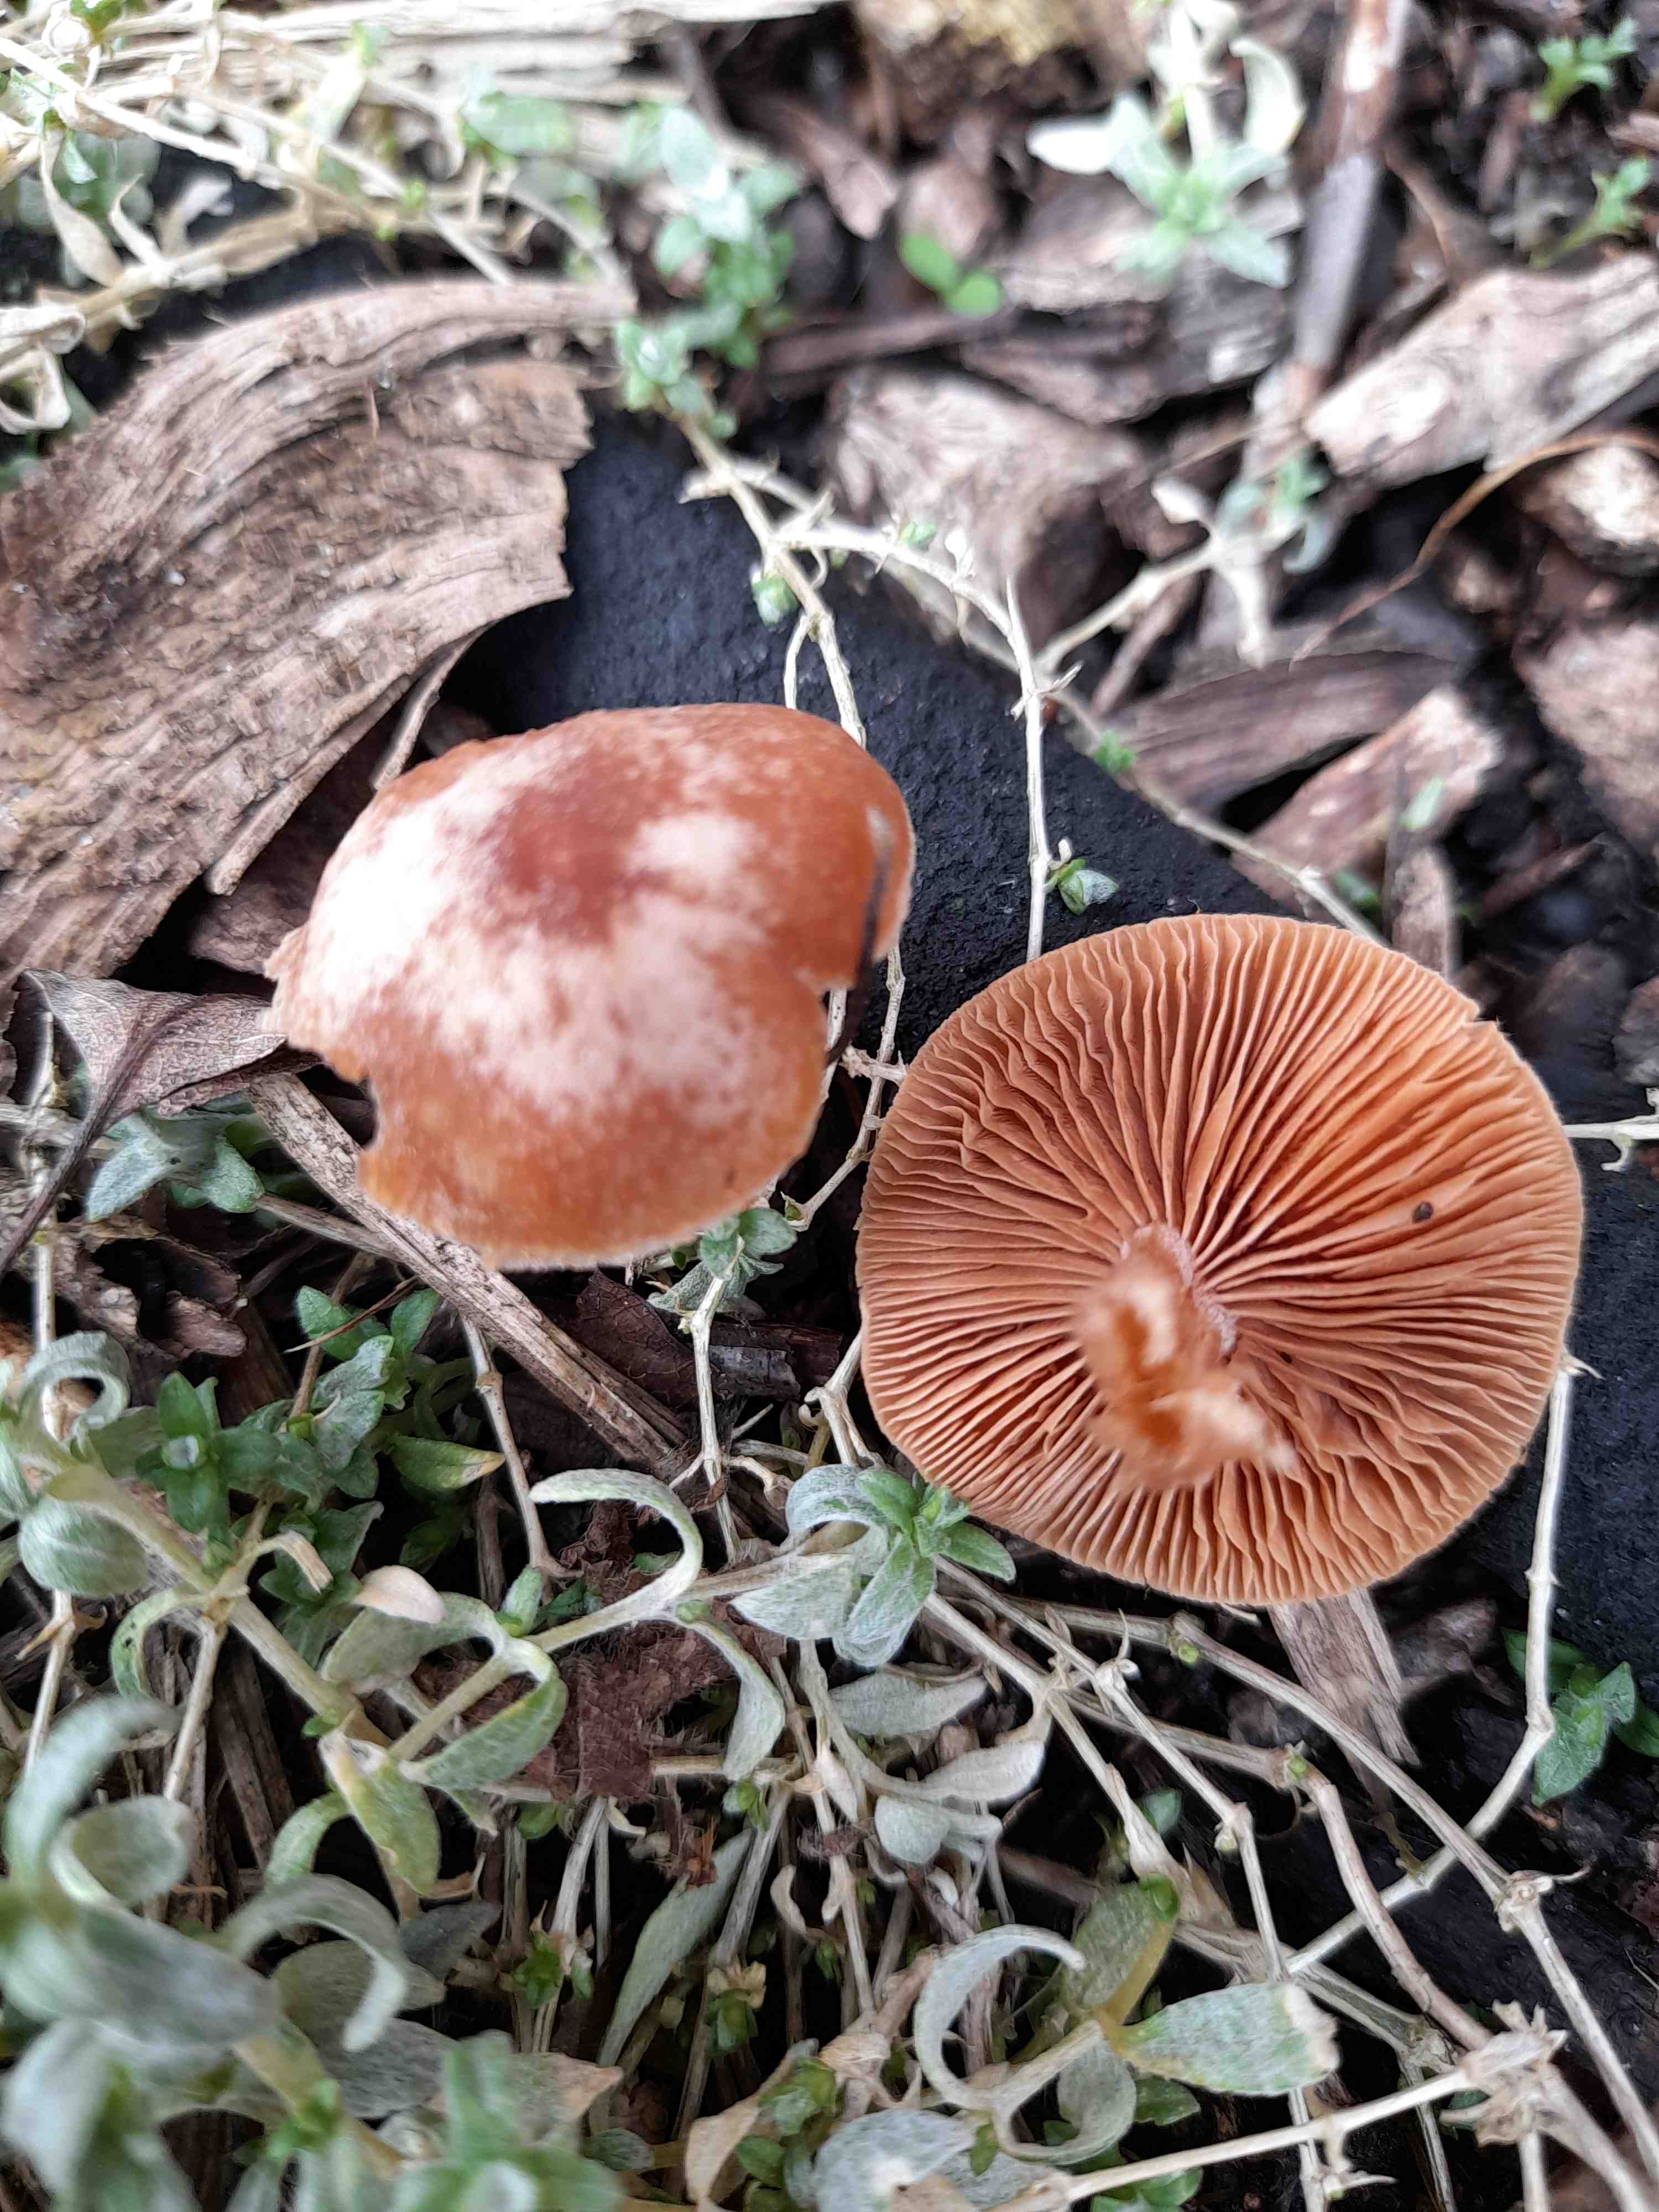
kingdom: Fungi
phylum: Basidiomycota
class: Agaricomycetes
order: Agaricales
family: Tubariaceae
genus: Tubaria
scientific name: Tubaria furfuracea
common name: kliddet fnughat
